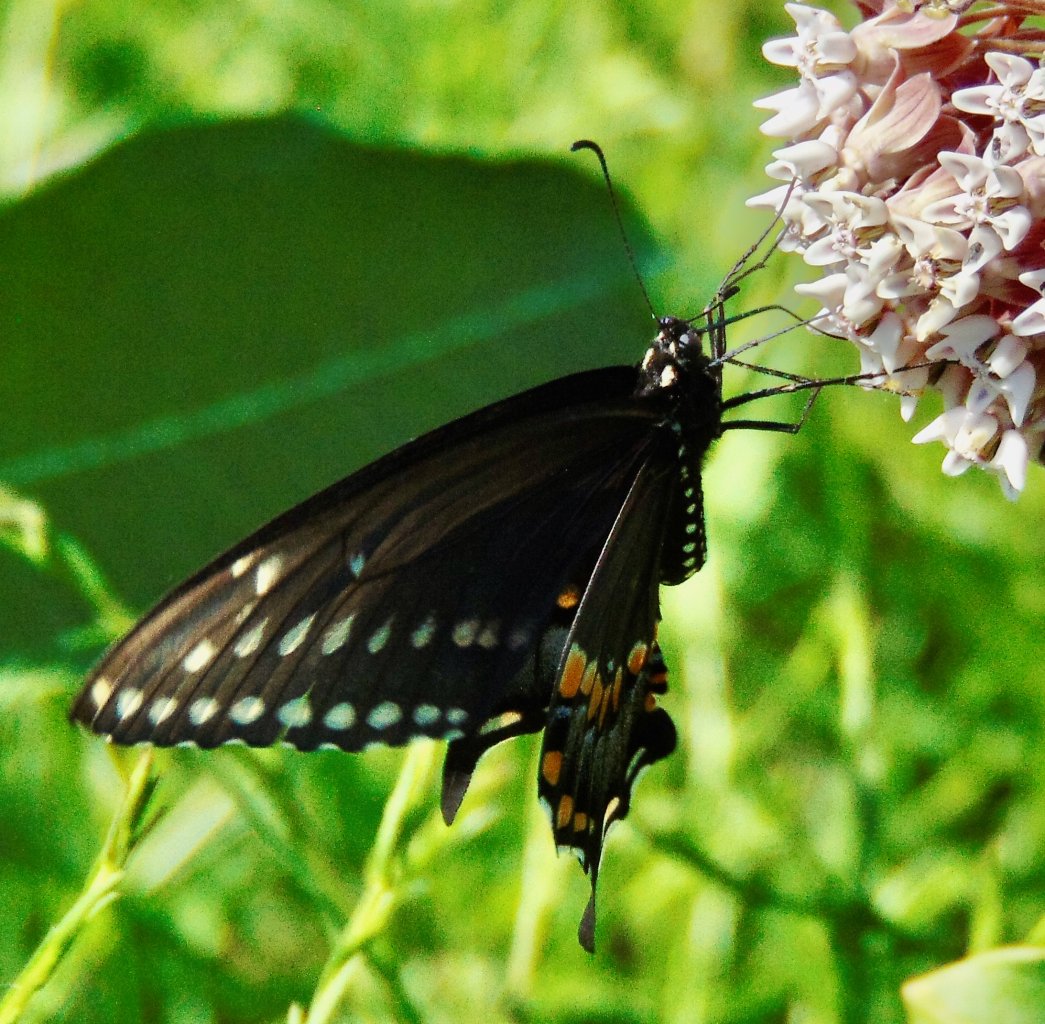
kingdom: Animalia
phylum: Arthropoda
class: Insecta
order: Lepidoptera
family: Papilionidae
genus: Papilio
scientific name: Papilio polyxenes
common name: Black Swallowtail
